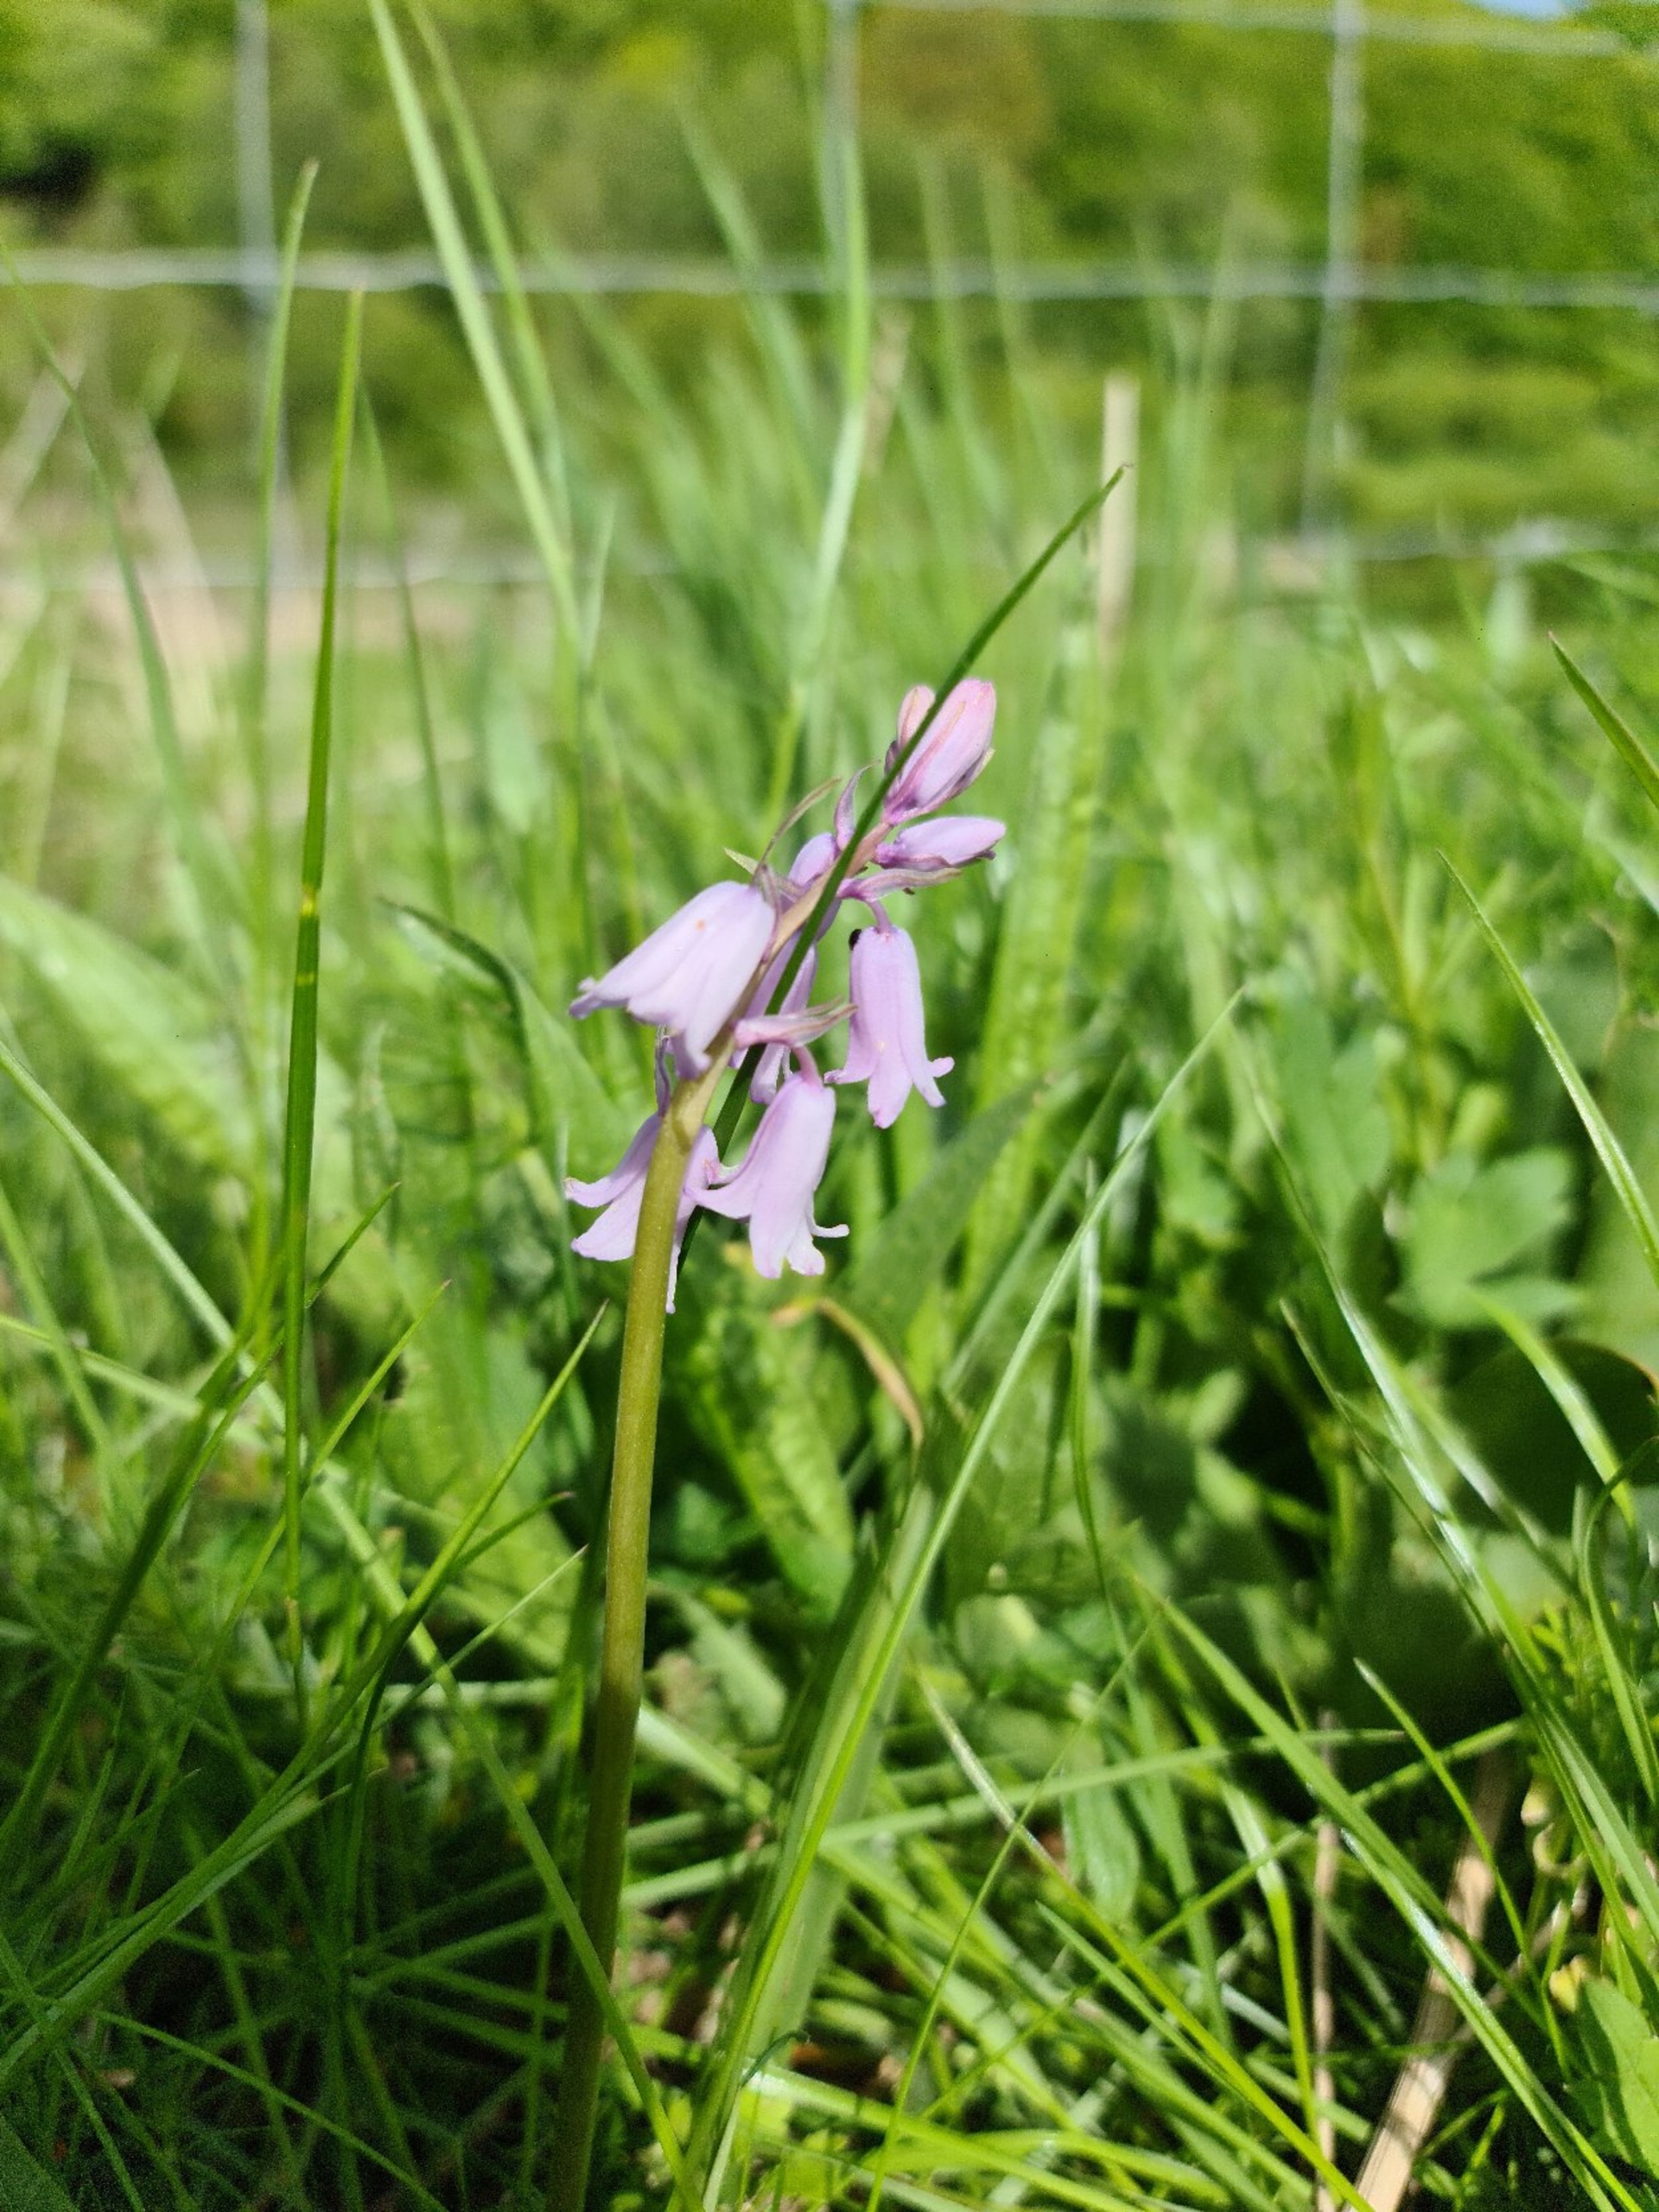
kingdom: Plantae
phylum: Tracheophyta
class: Liliopsida
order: Asparagales
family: Asparagaceae
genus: Hyacinthoides
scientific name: Hyacinthoides massartiana
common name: Hybrid-klokkeskilla
